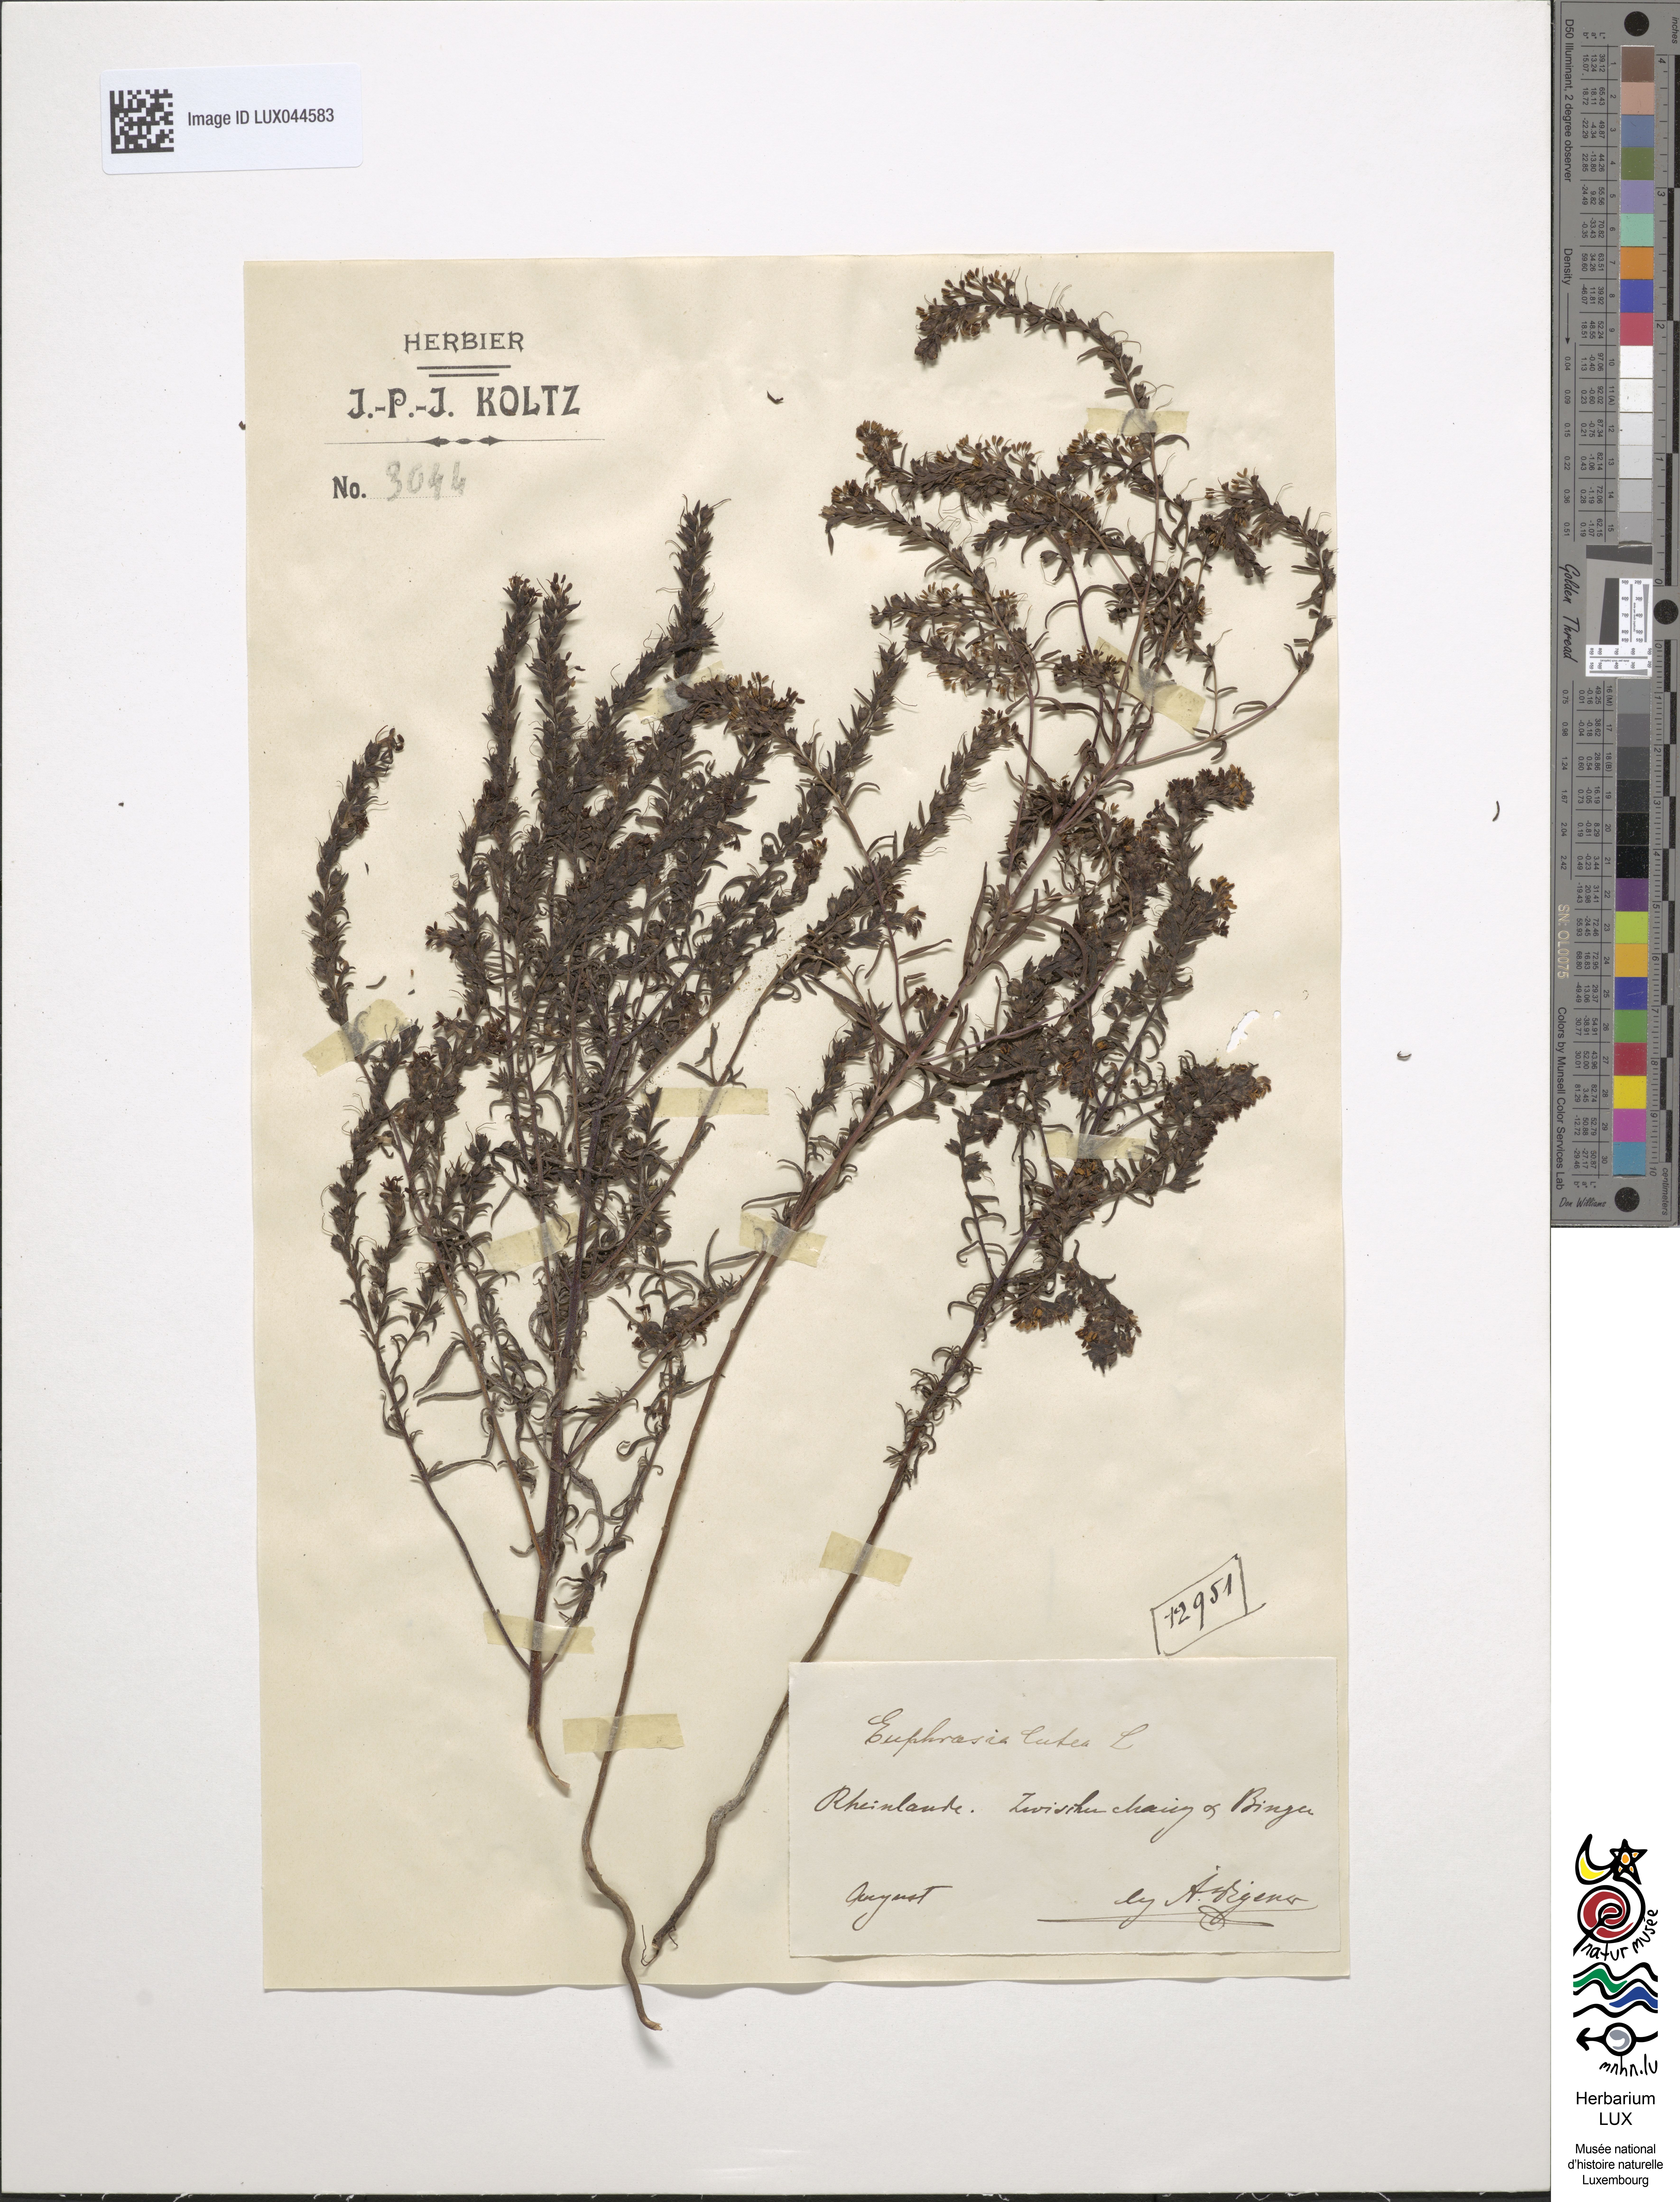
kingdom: Plantae
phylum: Tracheophyta
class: Magnoliopsida
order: Lamiales
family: Orobanchaceae
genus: Odontites
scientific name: Odontites luteus
